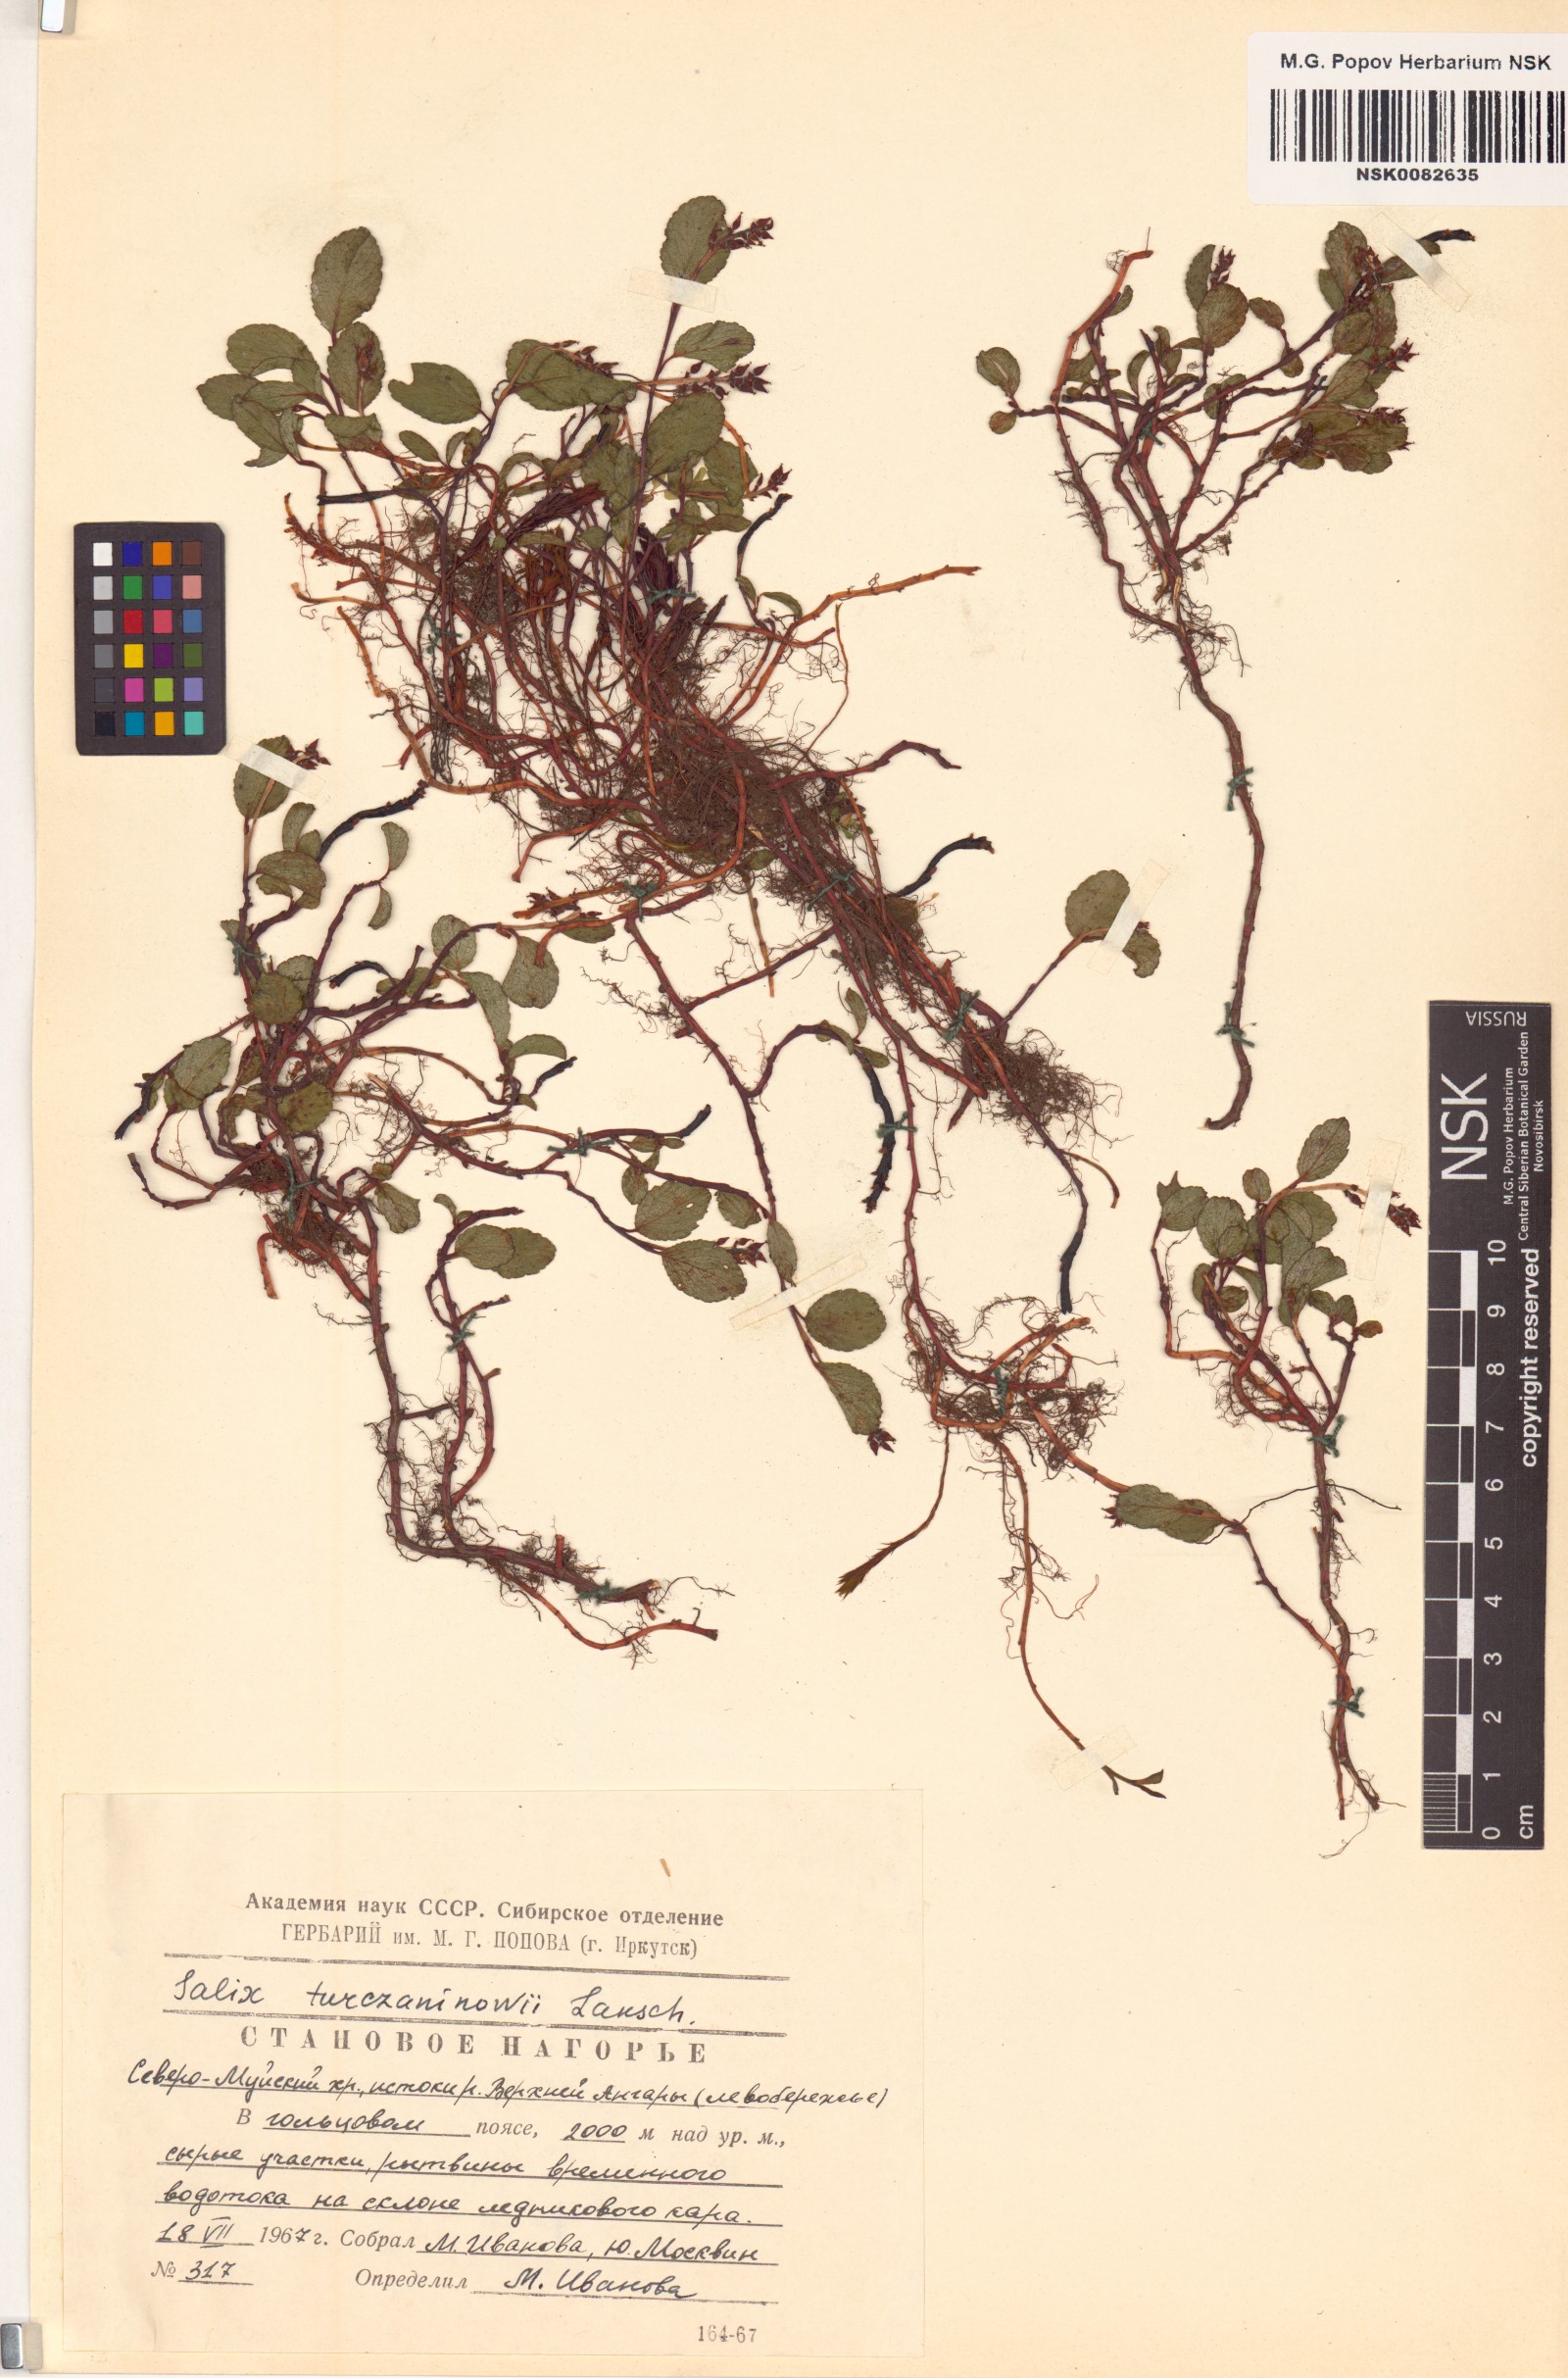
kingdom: Plantae
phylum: Tracheophyta
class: Magnoliopsida
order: Malpighiales
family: Salicaceae
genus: Salix
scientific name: Salix turczaninowii
